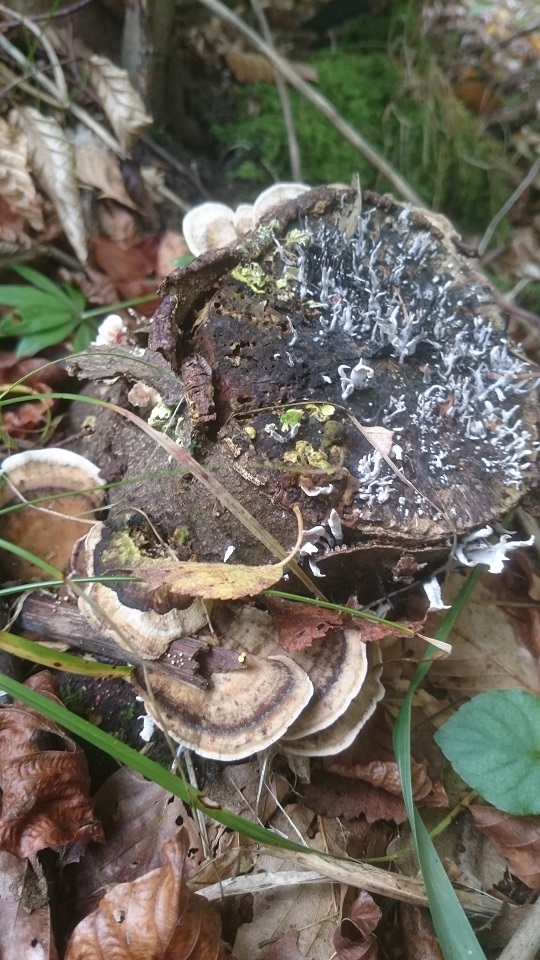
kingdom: Fungi
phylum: Basidiomycota
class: Agaricomycetes
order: Polyporales
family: Phanerochaetaceae
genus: Bjerkandera
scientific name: Bjerkandera adusta
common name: sveden sodporesvamp
